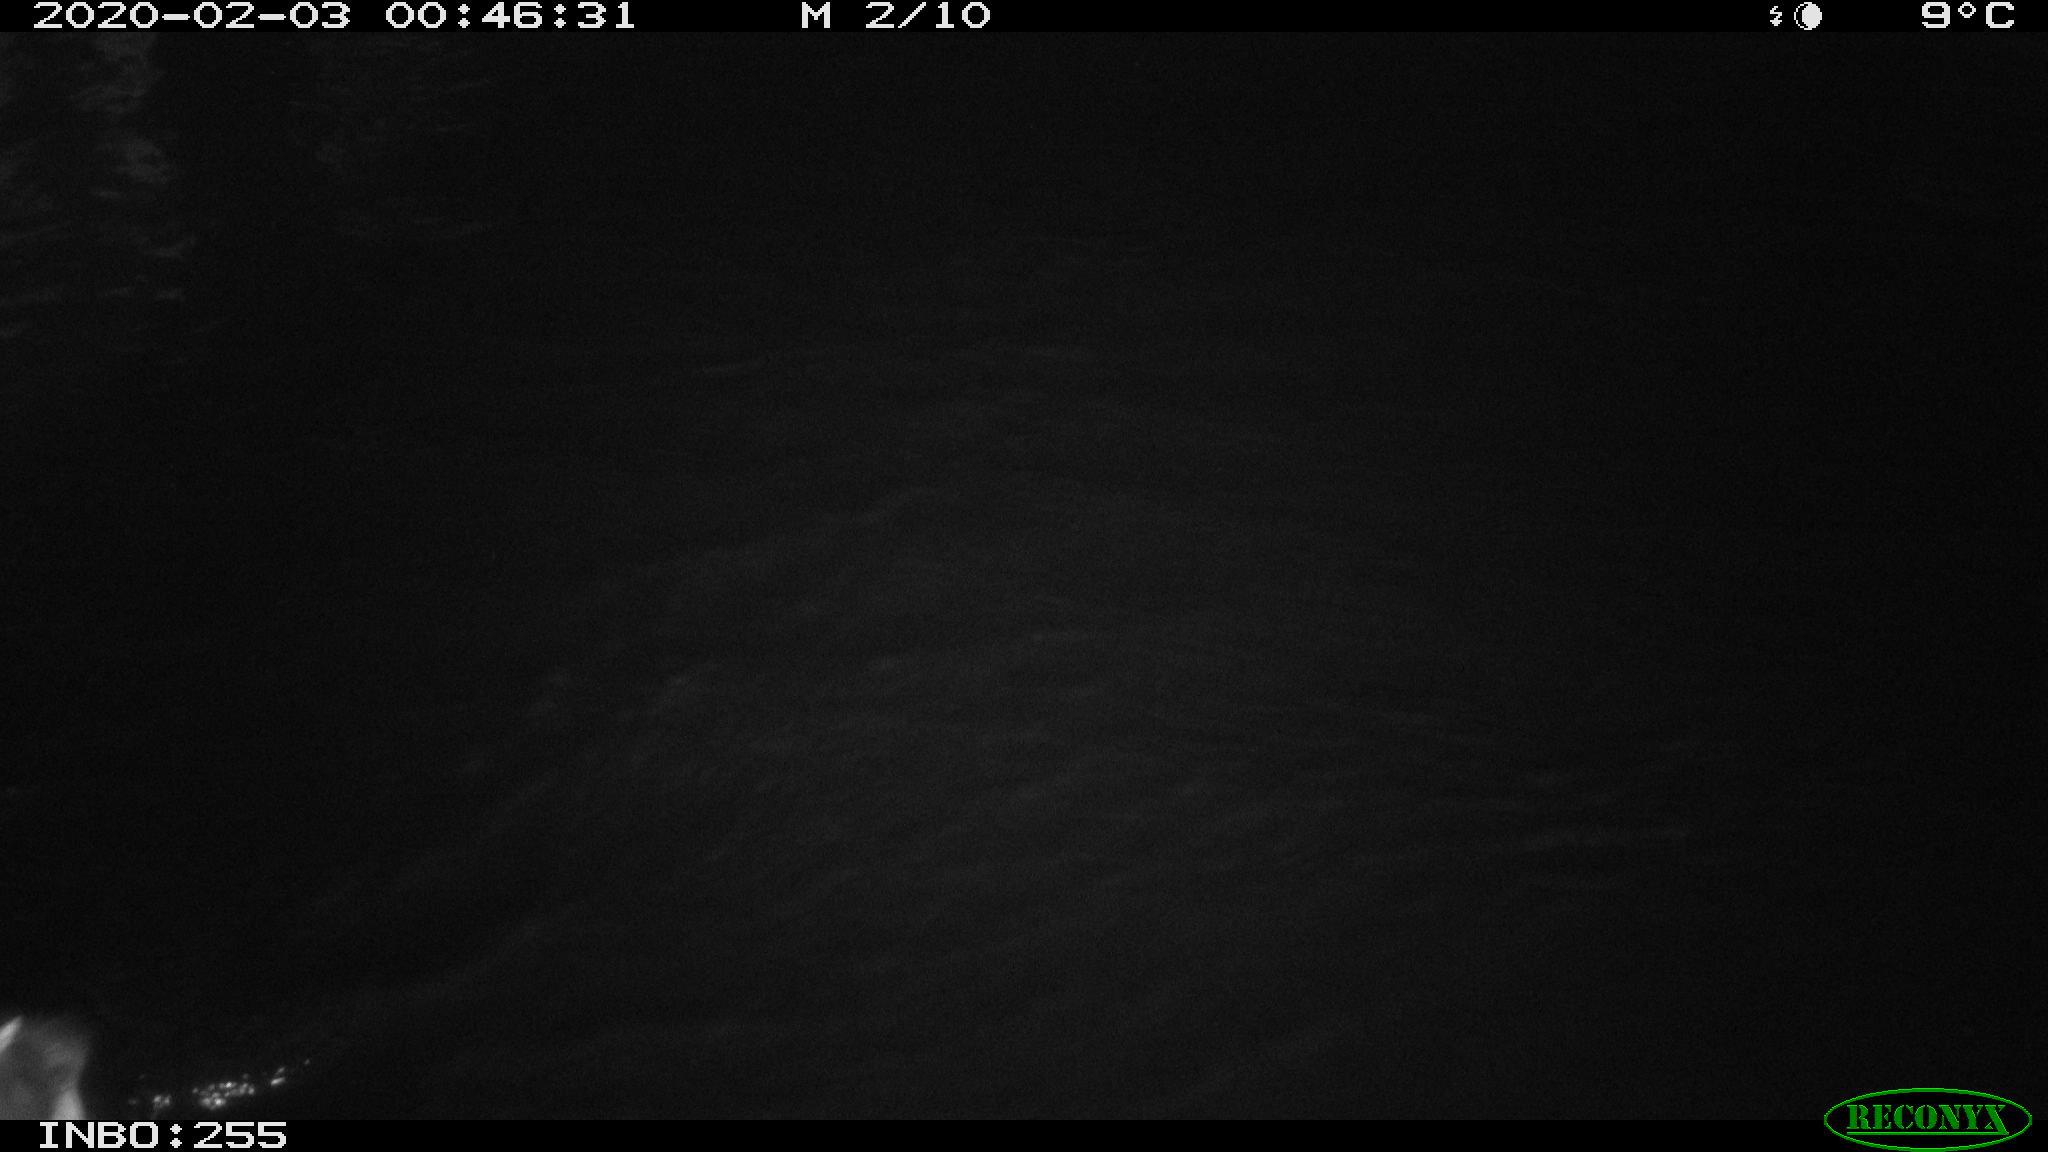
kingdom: Animalia
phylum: Chordata
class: Aves
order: Gruiformes
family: Rallidae
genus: Gallinula
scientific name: Gallinula chloropus
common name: Common moorhen
